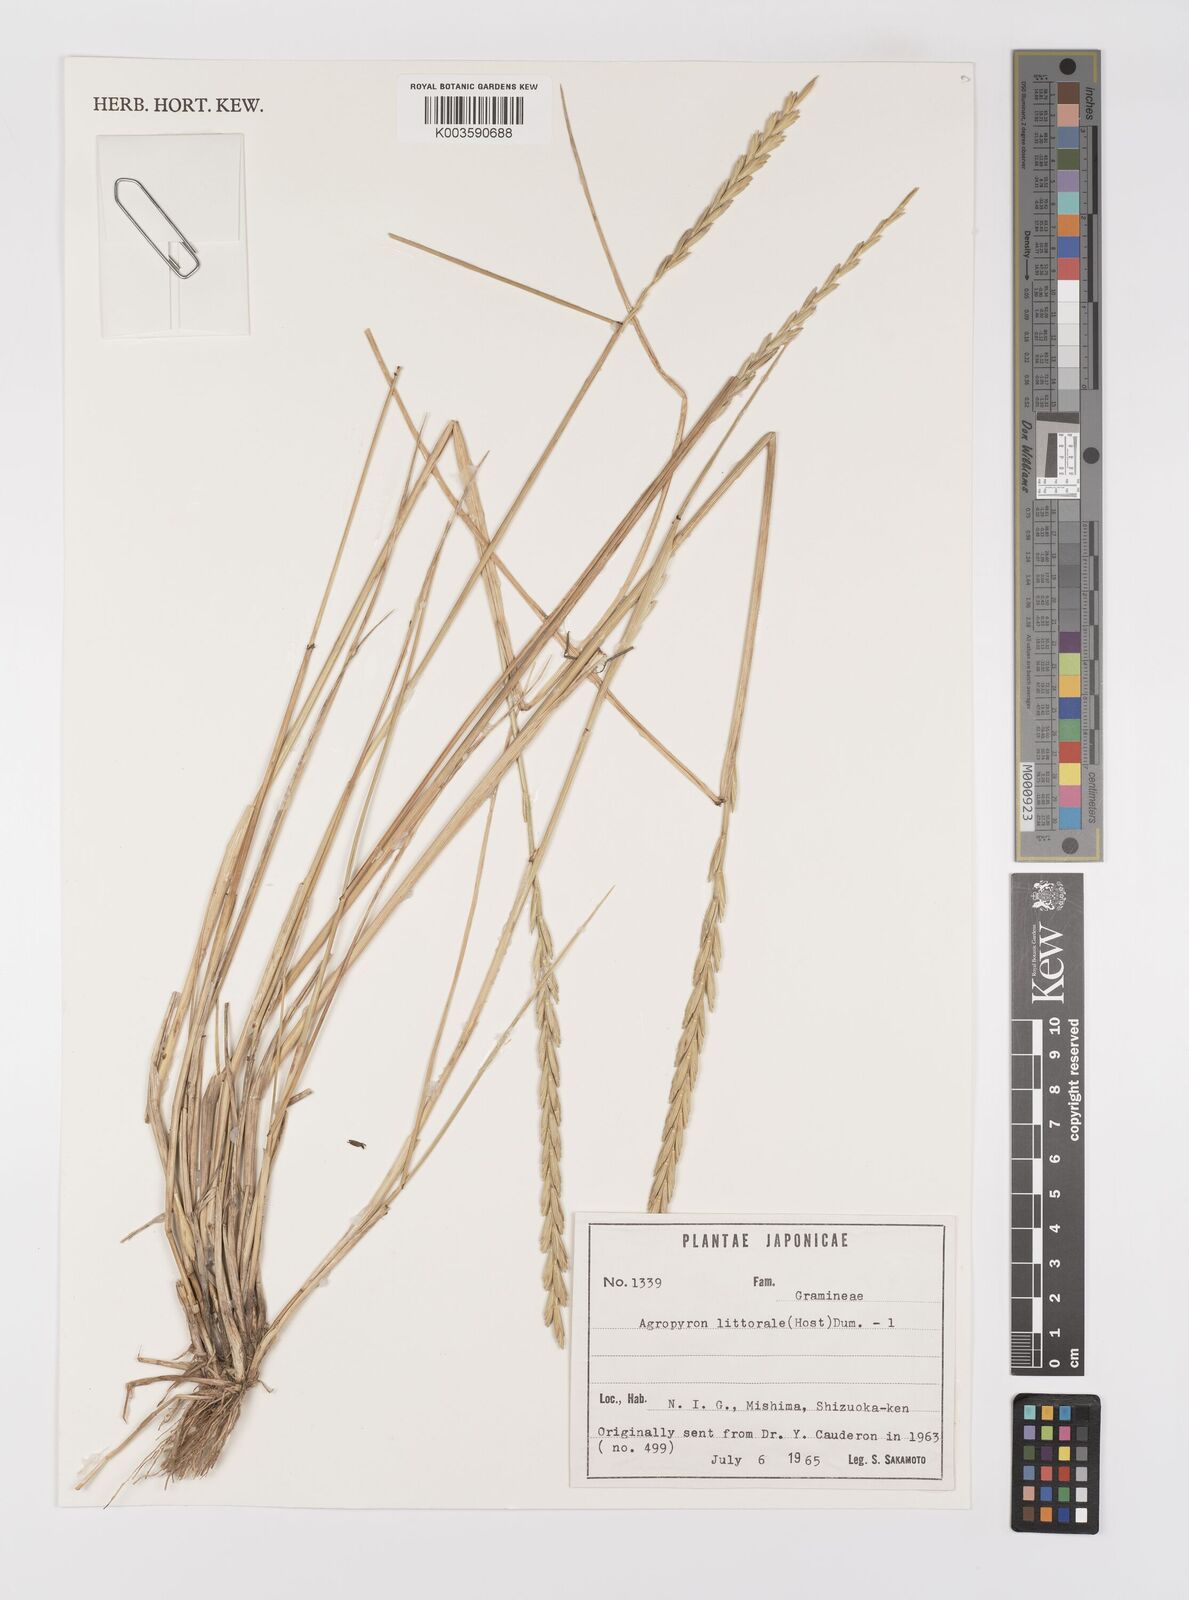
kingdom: Plantae
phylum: Tracheophyta
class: Liliopsida
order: Poales
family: Poaceae
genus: Elymus
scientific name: Elymus pungens
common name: Sea couch
